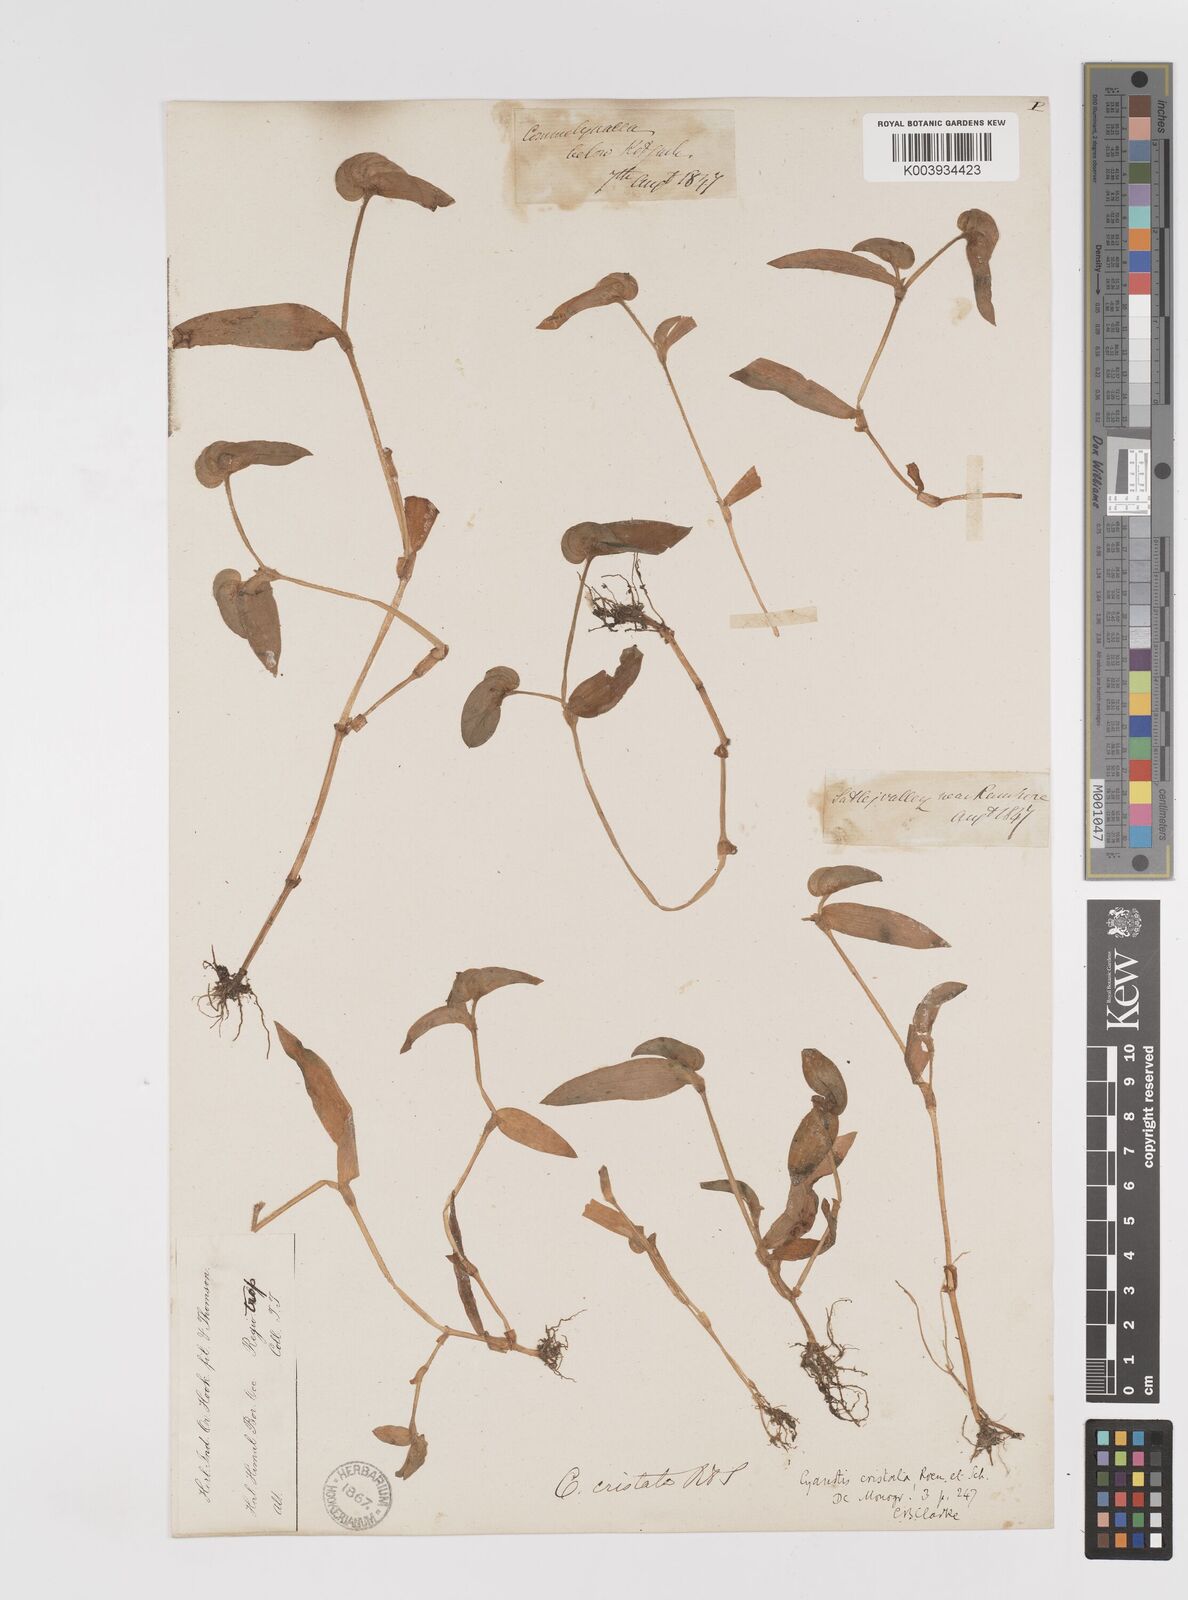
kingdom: Plantae
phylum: Tracheophyta
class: Liliopsida
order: Commelinales
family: Commelinaceae
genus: Cyanotis
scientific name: Cyanotis cristata
